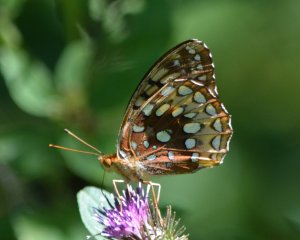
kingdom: Animalia
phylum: Arthropoda
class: Insecta
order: Lepidoptera
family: Nymphalidae
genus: Speyeria
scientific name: Speyeria cybele
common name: Great Spangled Fritillary
